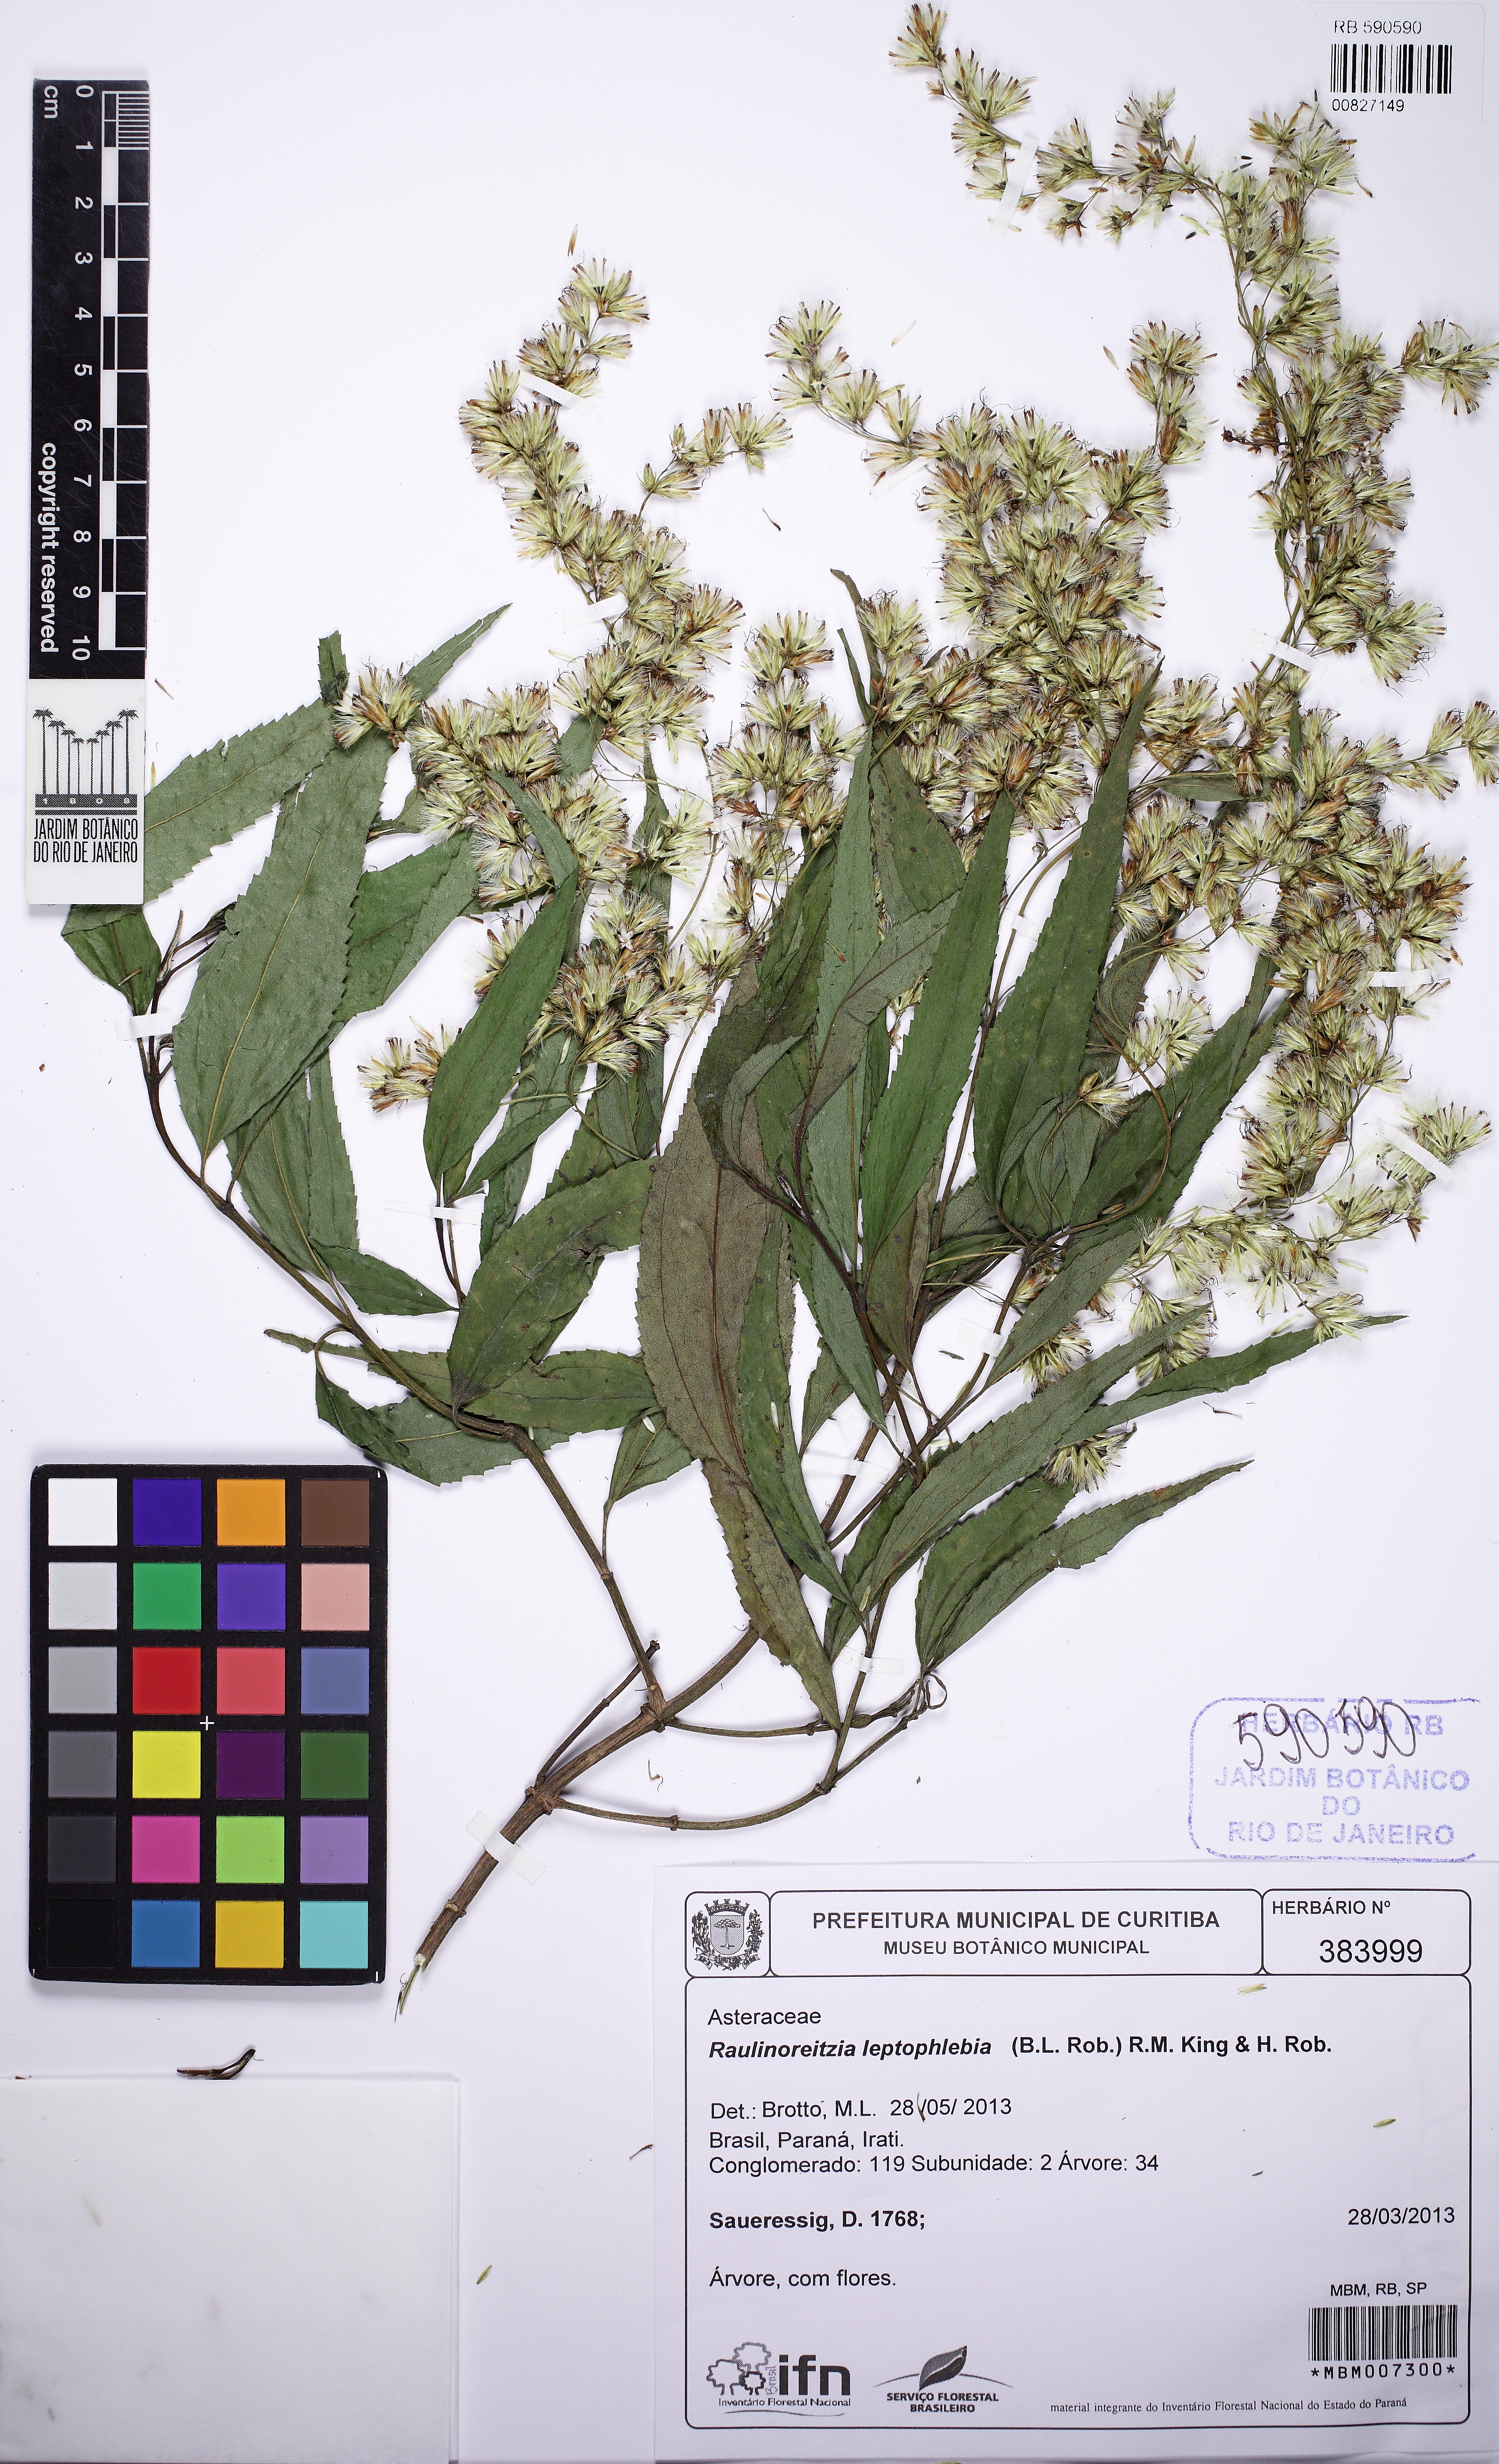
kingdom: Plantae
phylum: Tracheophyta
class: Magnoliopsida
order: Asterales
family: Asteraceae
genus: Raulinoreitzia
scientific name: Raulinoreitzia leptophlebia
